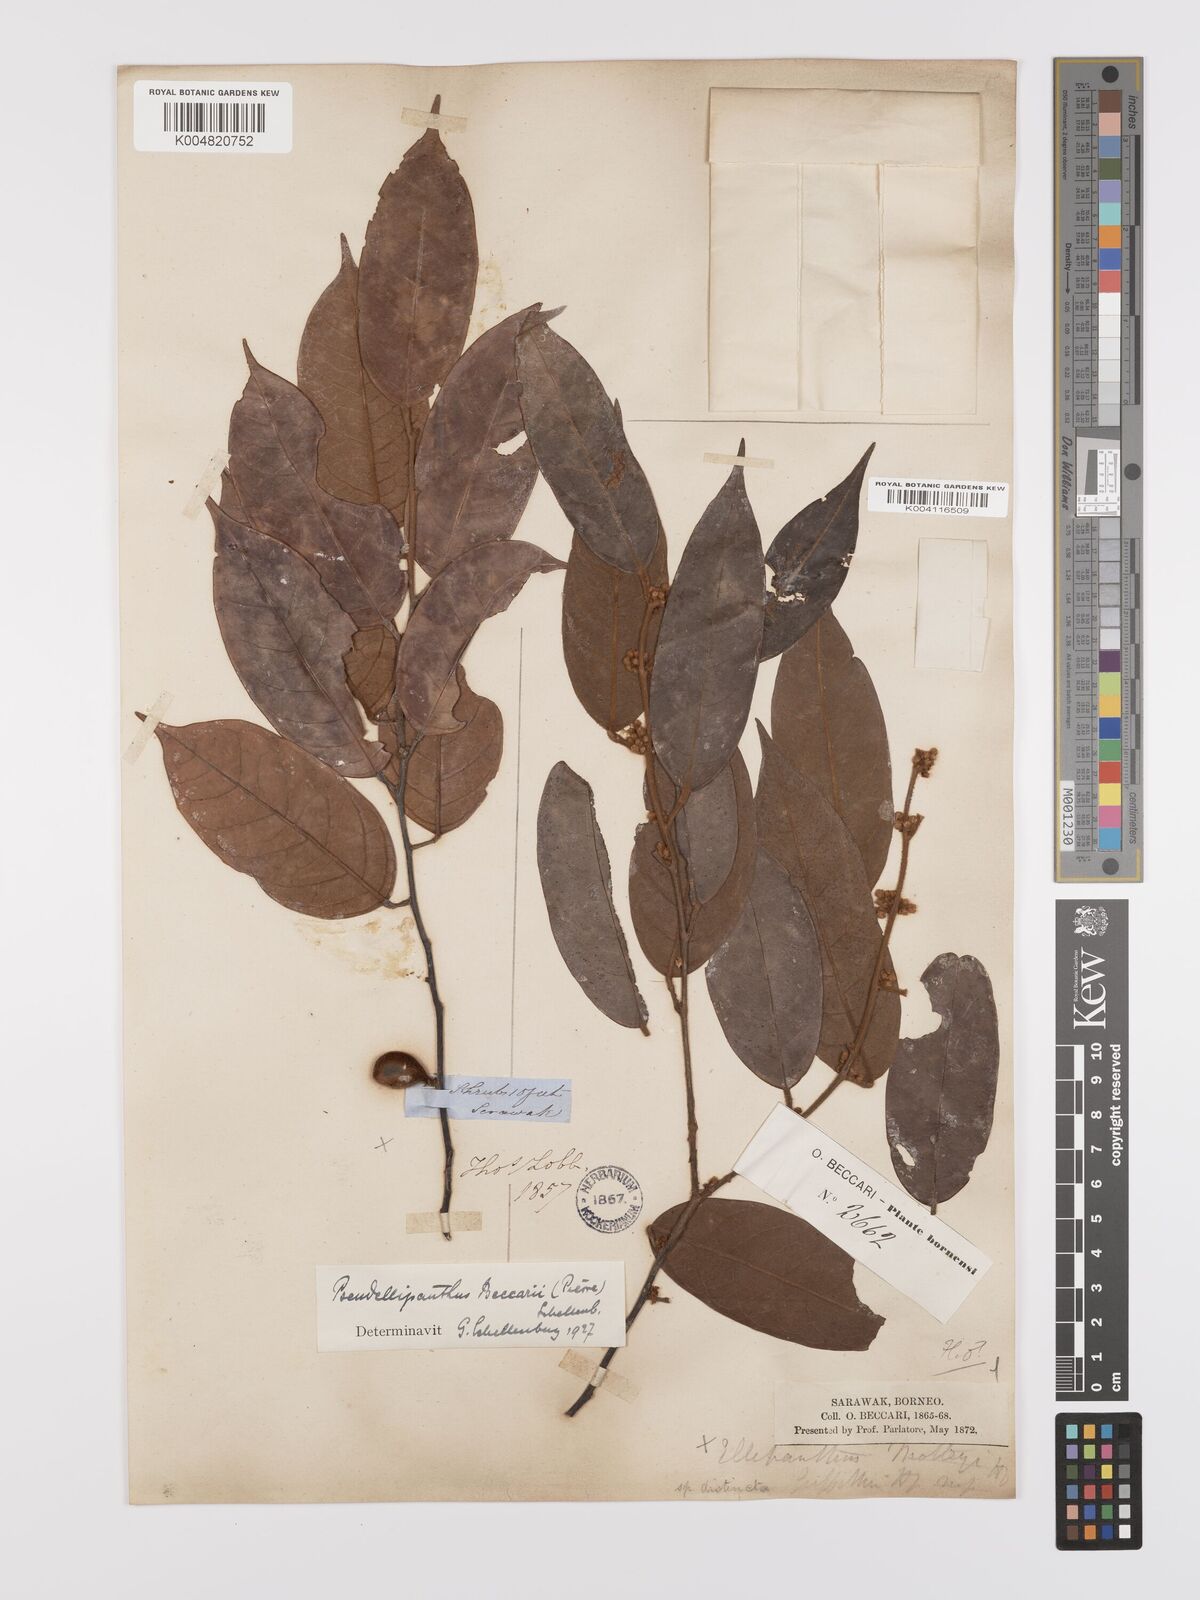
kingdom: Plantae
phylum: Tracheophyta
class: Magnoliopsida
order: Oxalidales
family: Connaraceae
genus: Ellipanthus
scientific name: Ellipanthus beccarii
